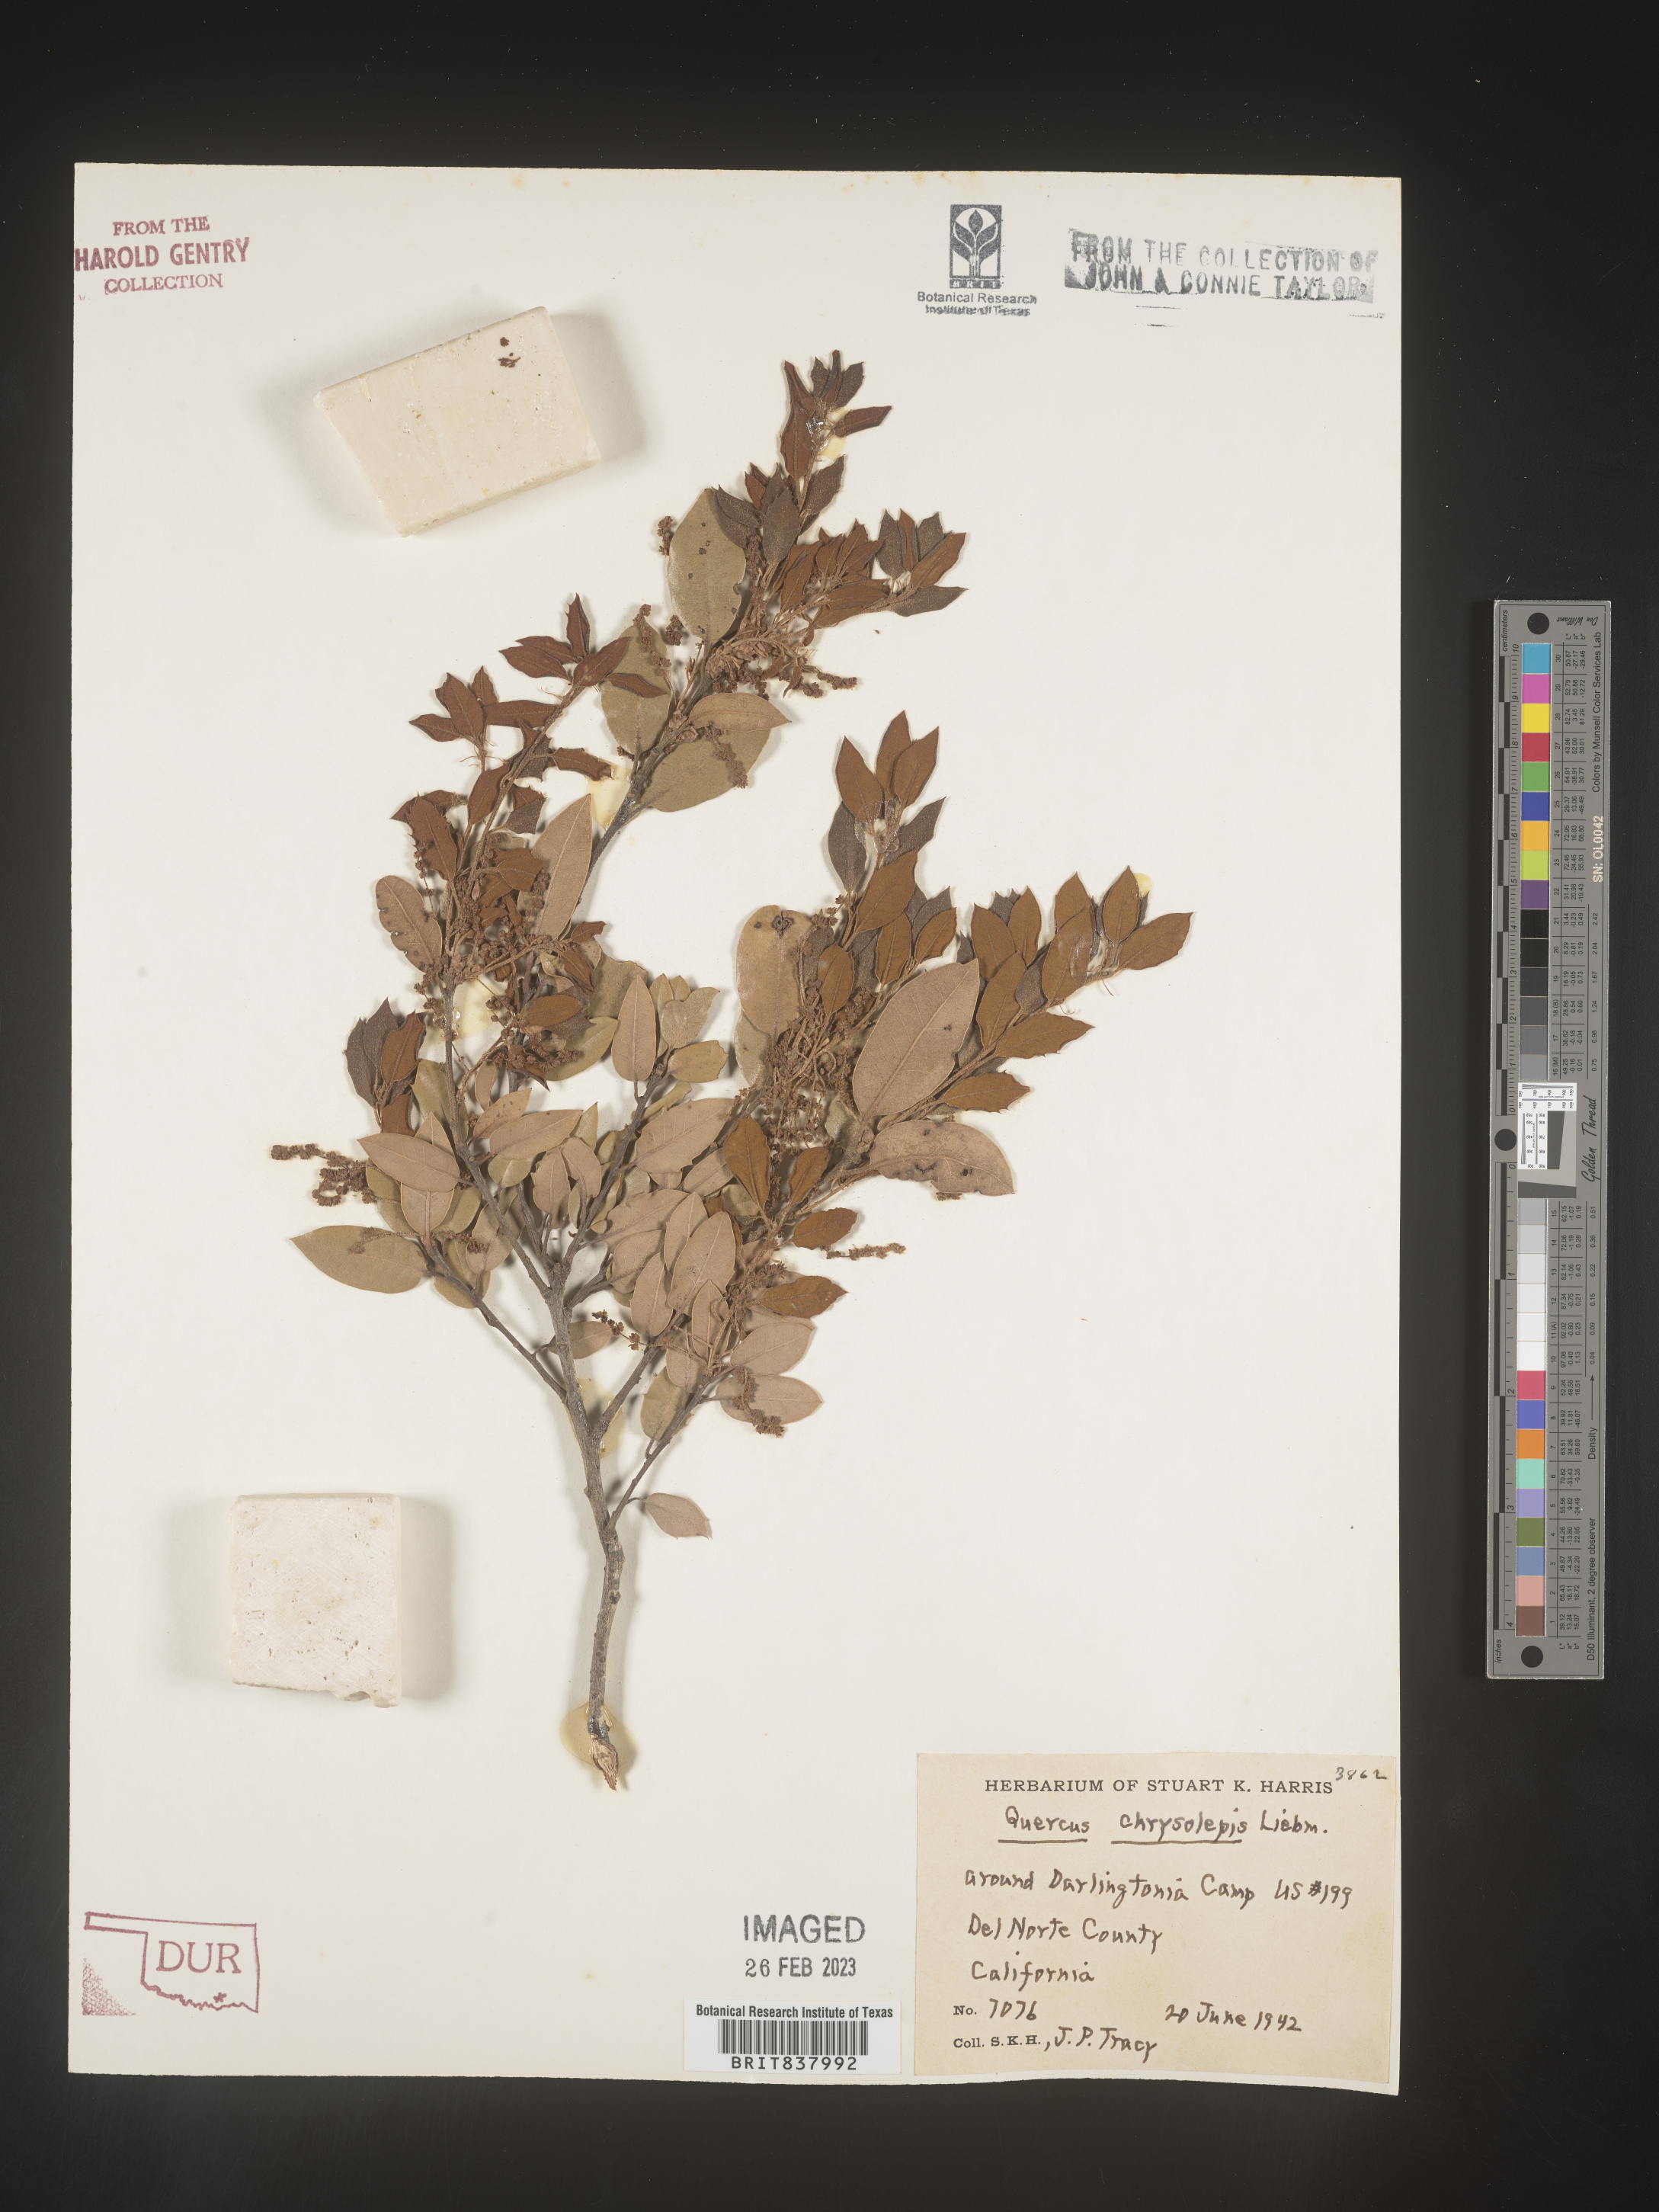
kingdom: Plantae
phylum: Tracheophyta
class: Magnoliopsida
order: Fagales
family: Fagaceae
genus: Quercus
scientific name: Quercus chrysolepis
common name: Canyon live oak
